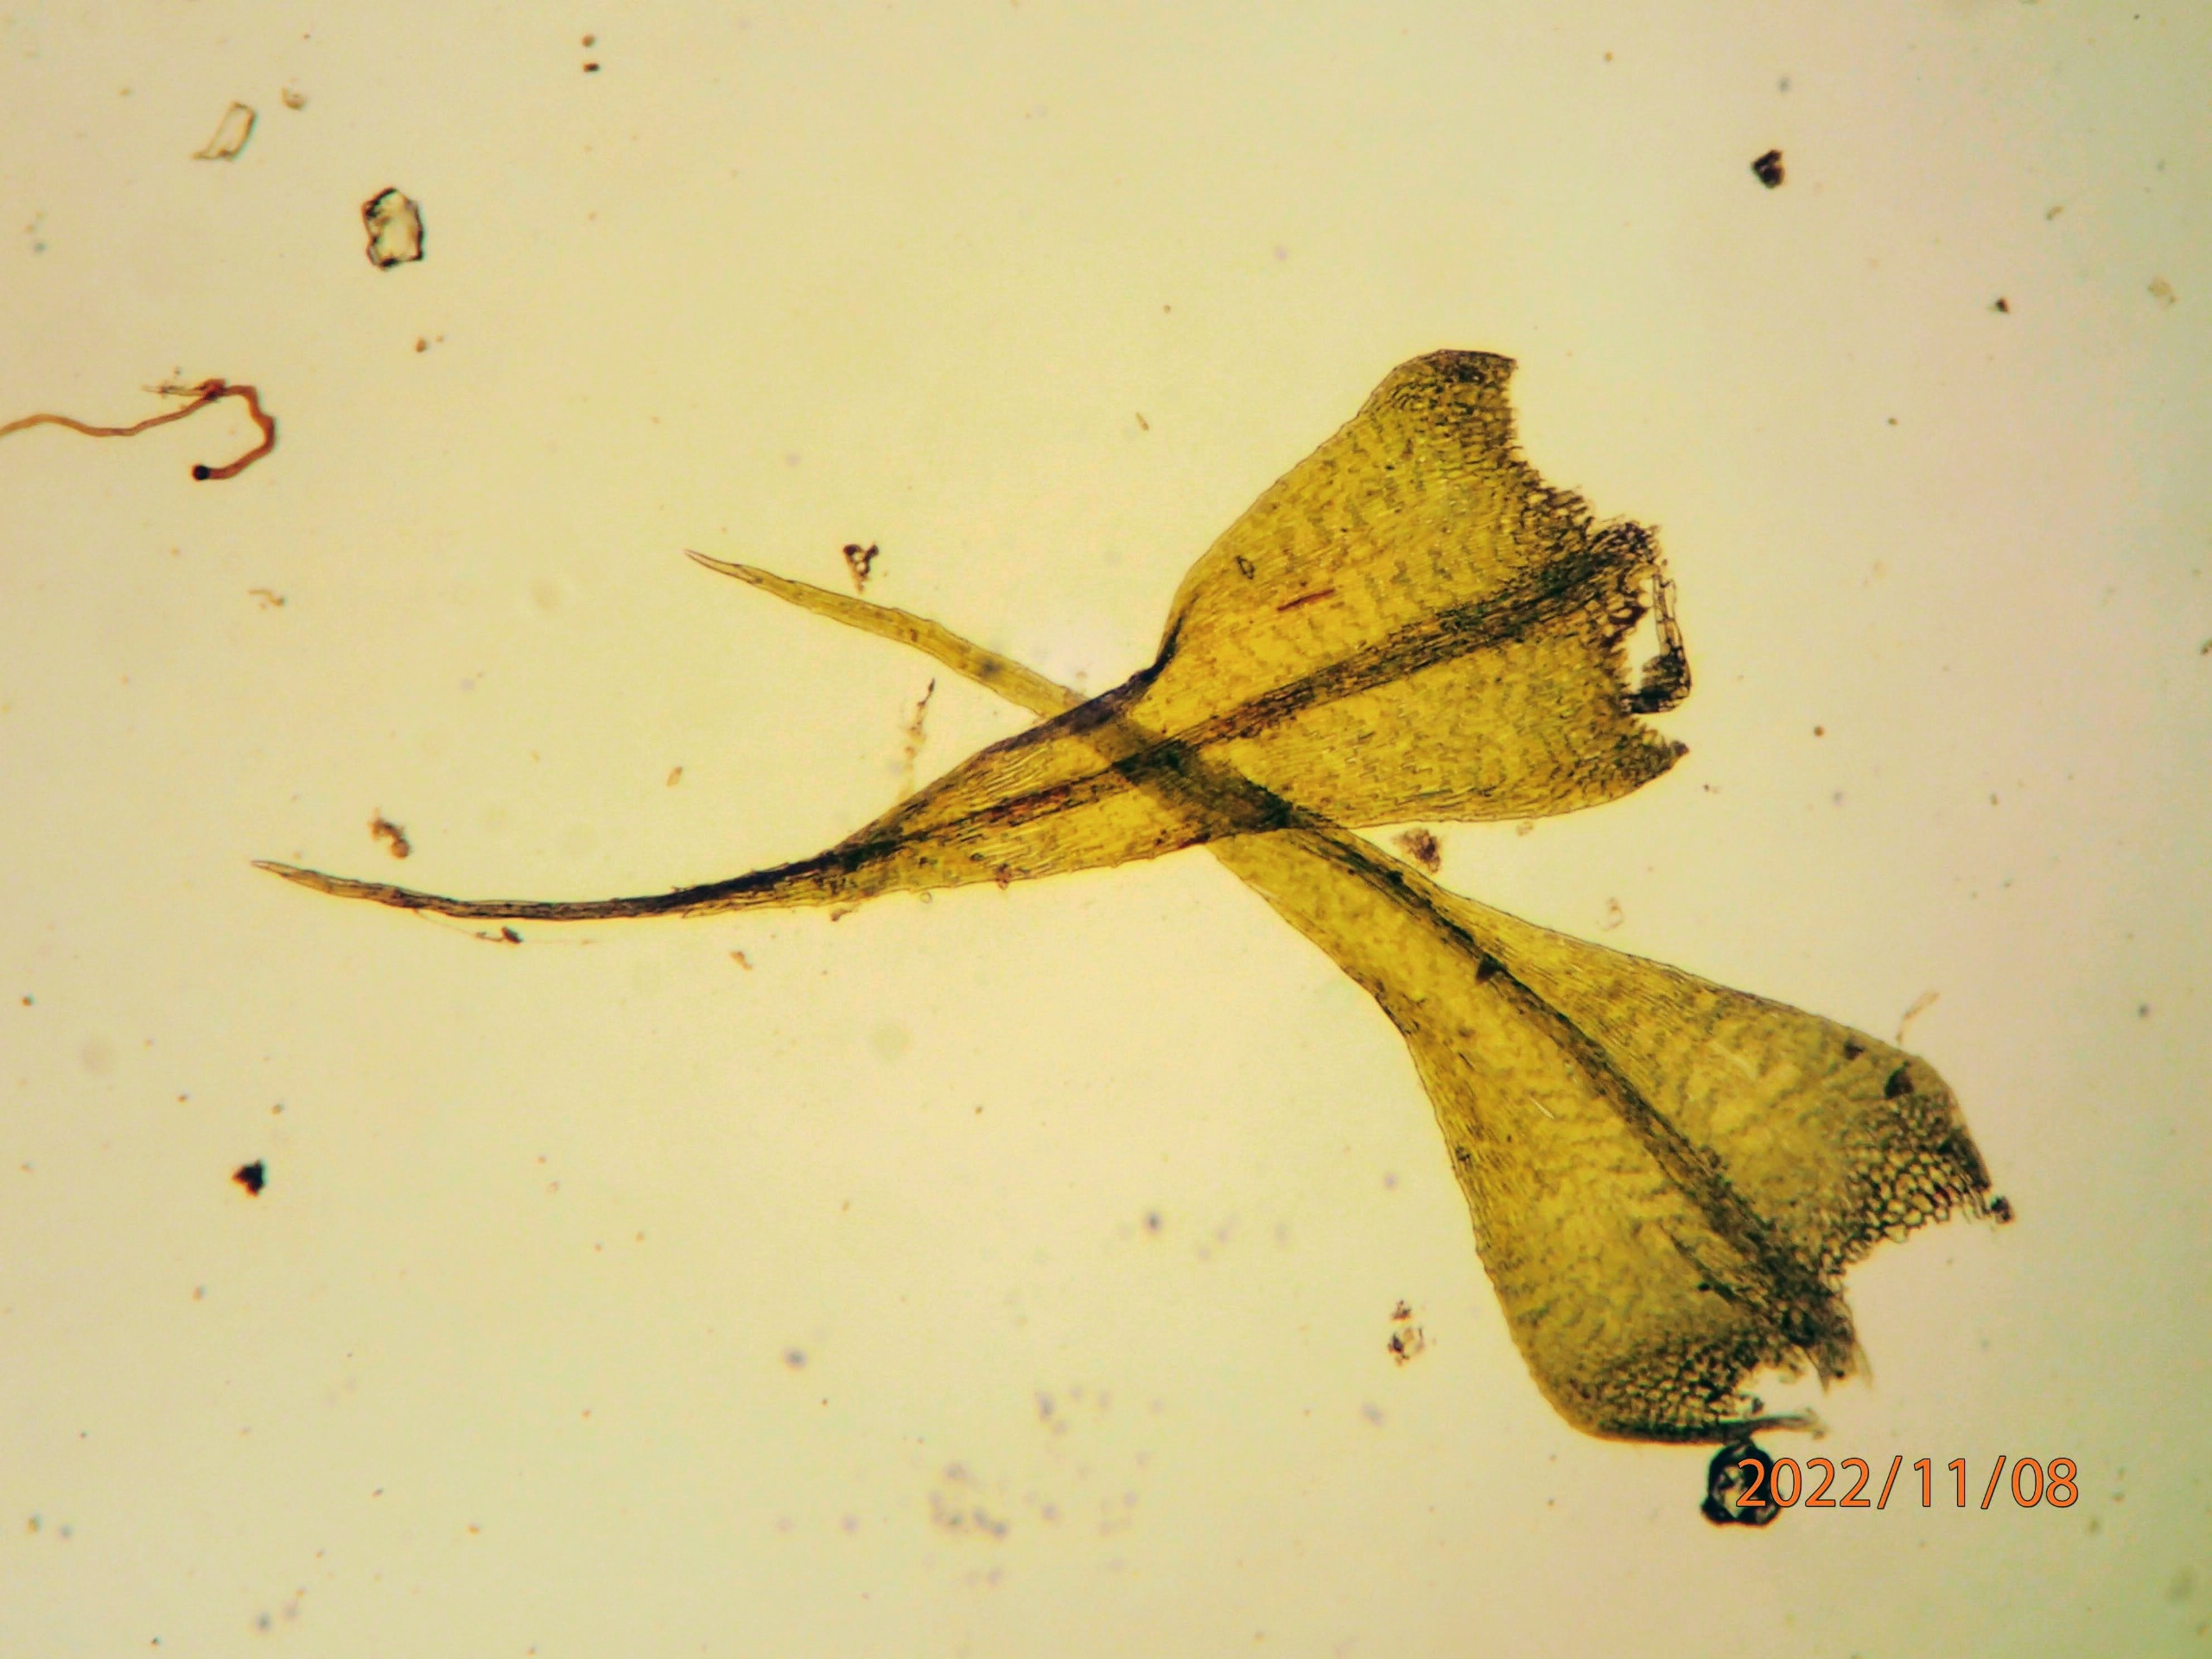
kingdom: Plantae
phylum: Bryophyta
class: Bryopsida
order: Hypnales
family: Brachytheciaceae
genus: Sciuro-hypnum
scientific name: Sciuro-hypnum populeum
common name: Park-kortkapsel
